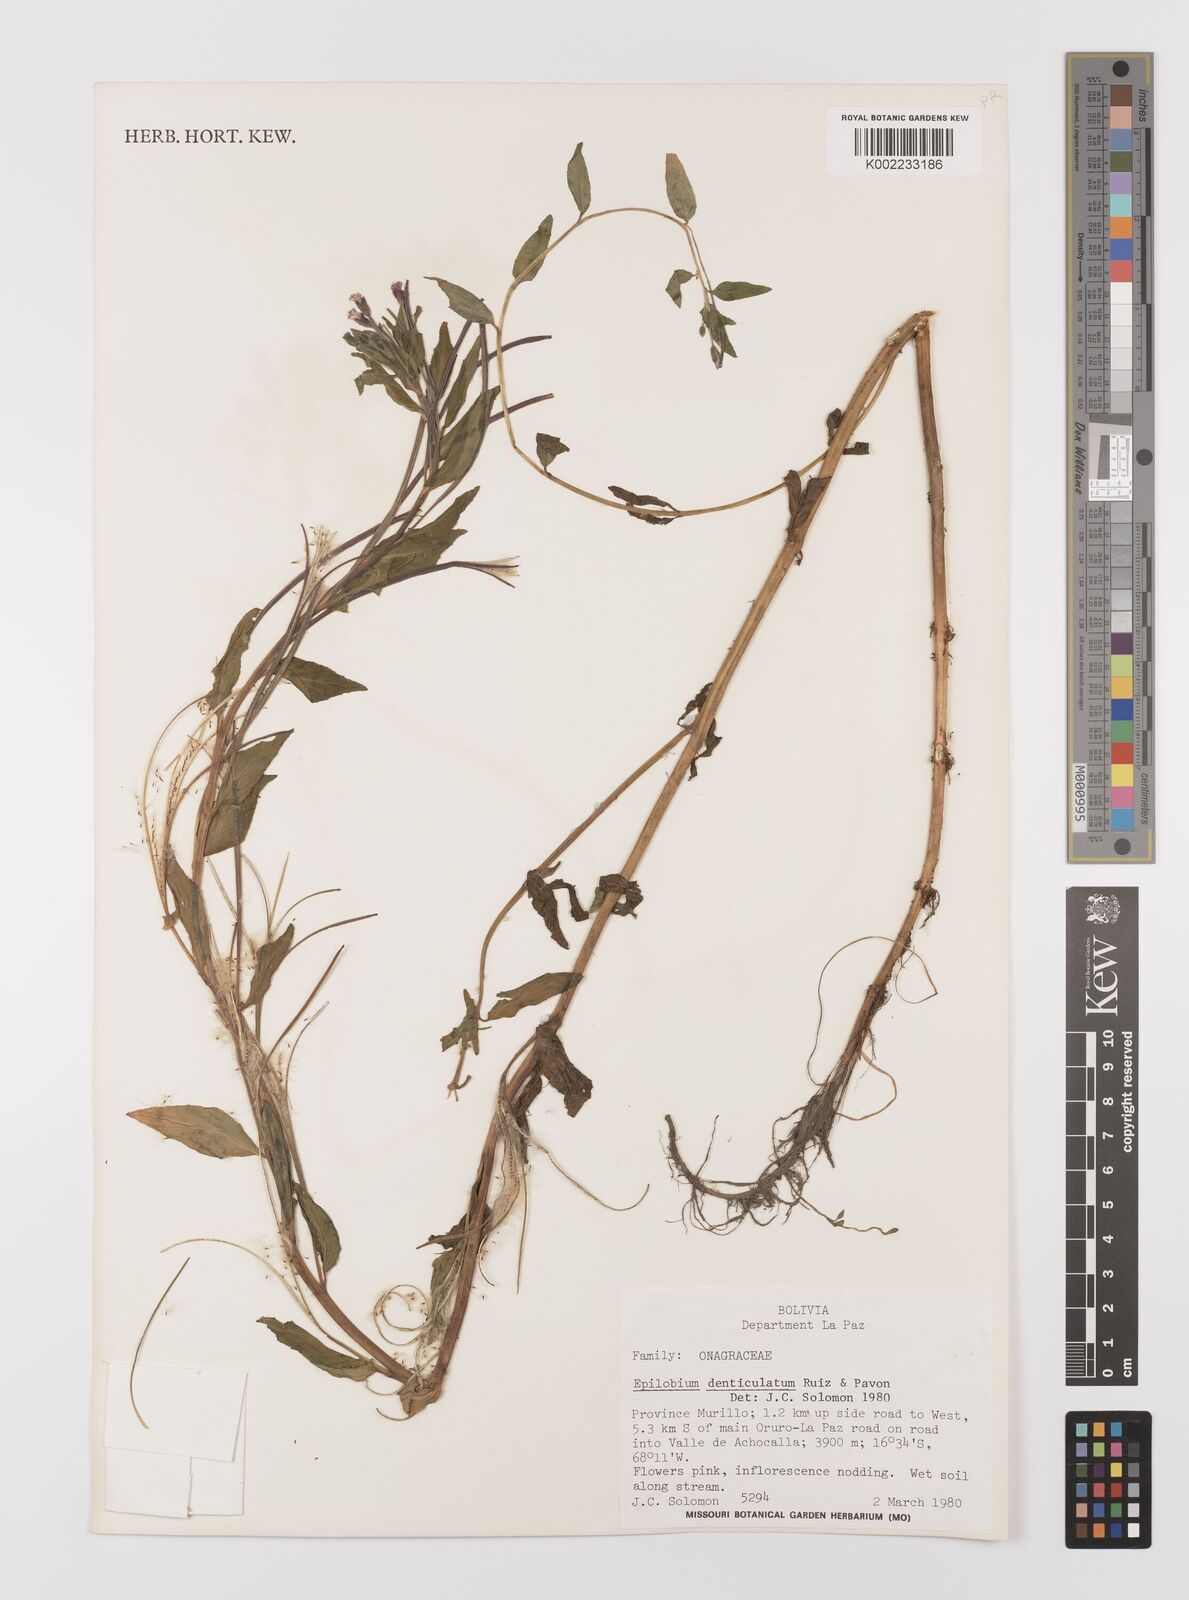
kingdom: Plantae
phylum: Tracheophyta
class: Magnoliopsida
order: Myrtales
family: Onagraceae
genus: Epilobium
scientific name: Epilobium denticulatum
